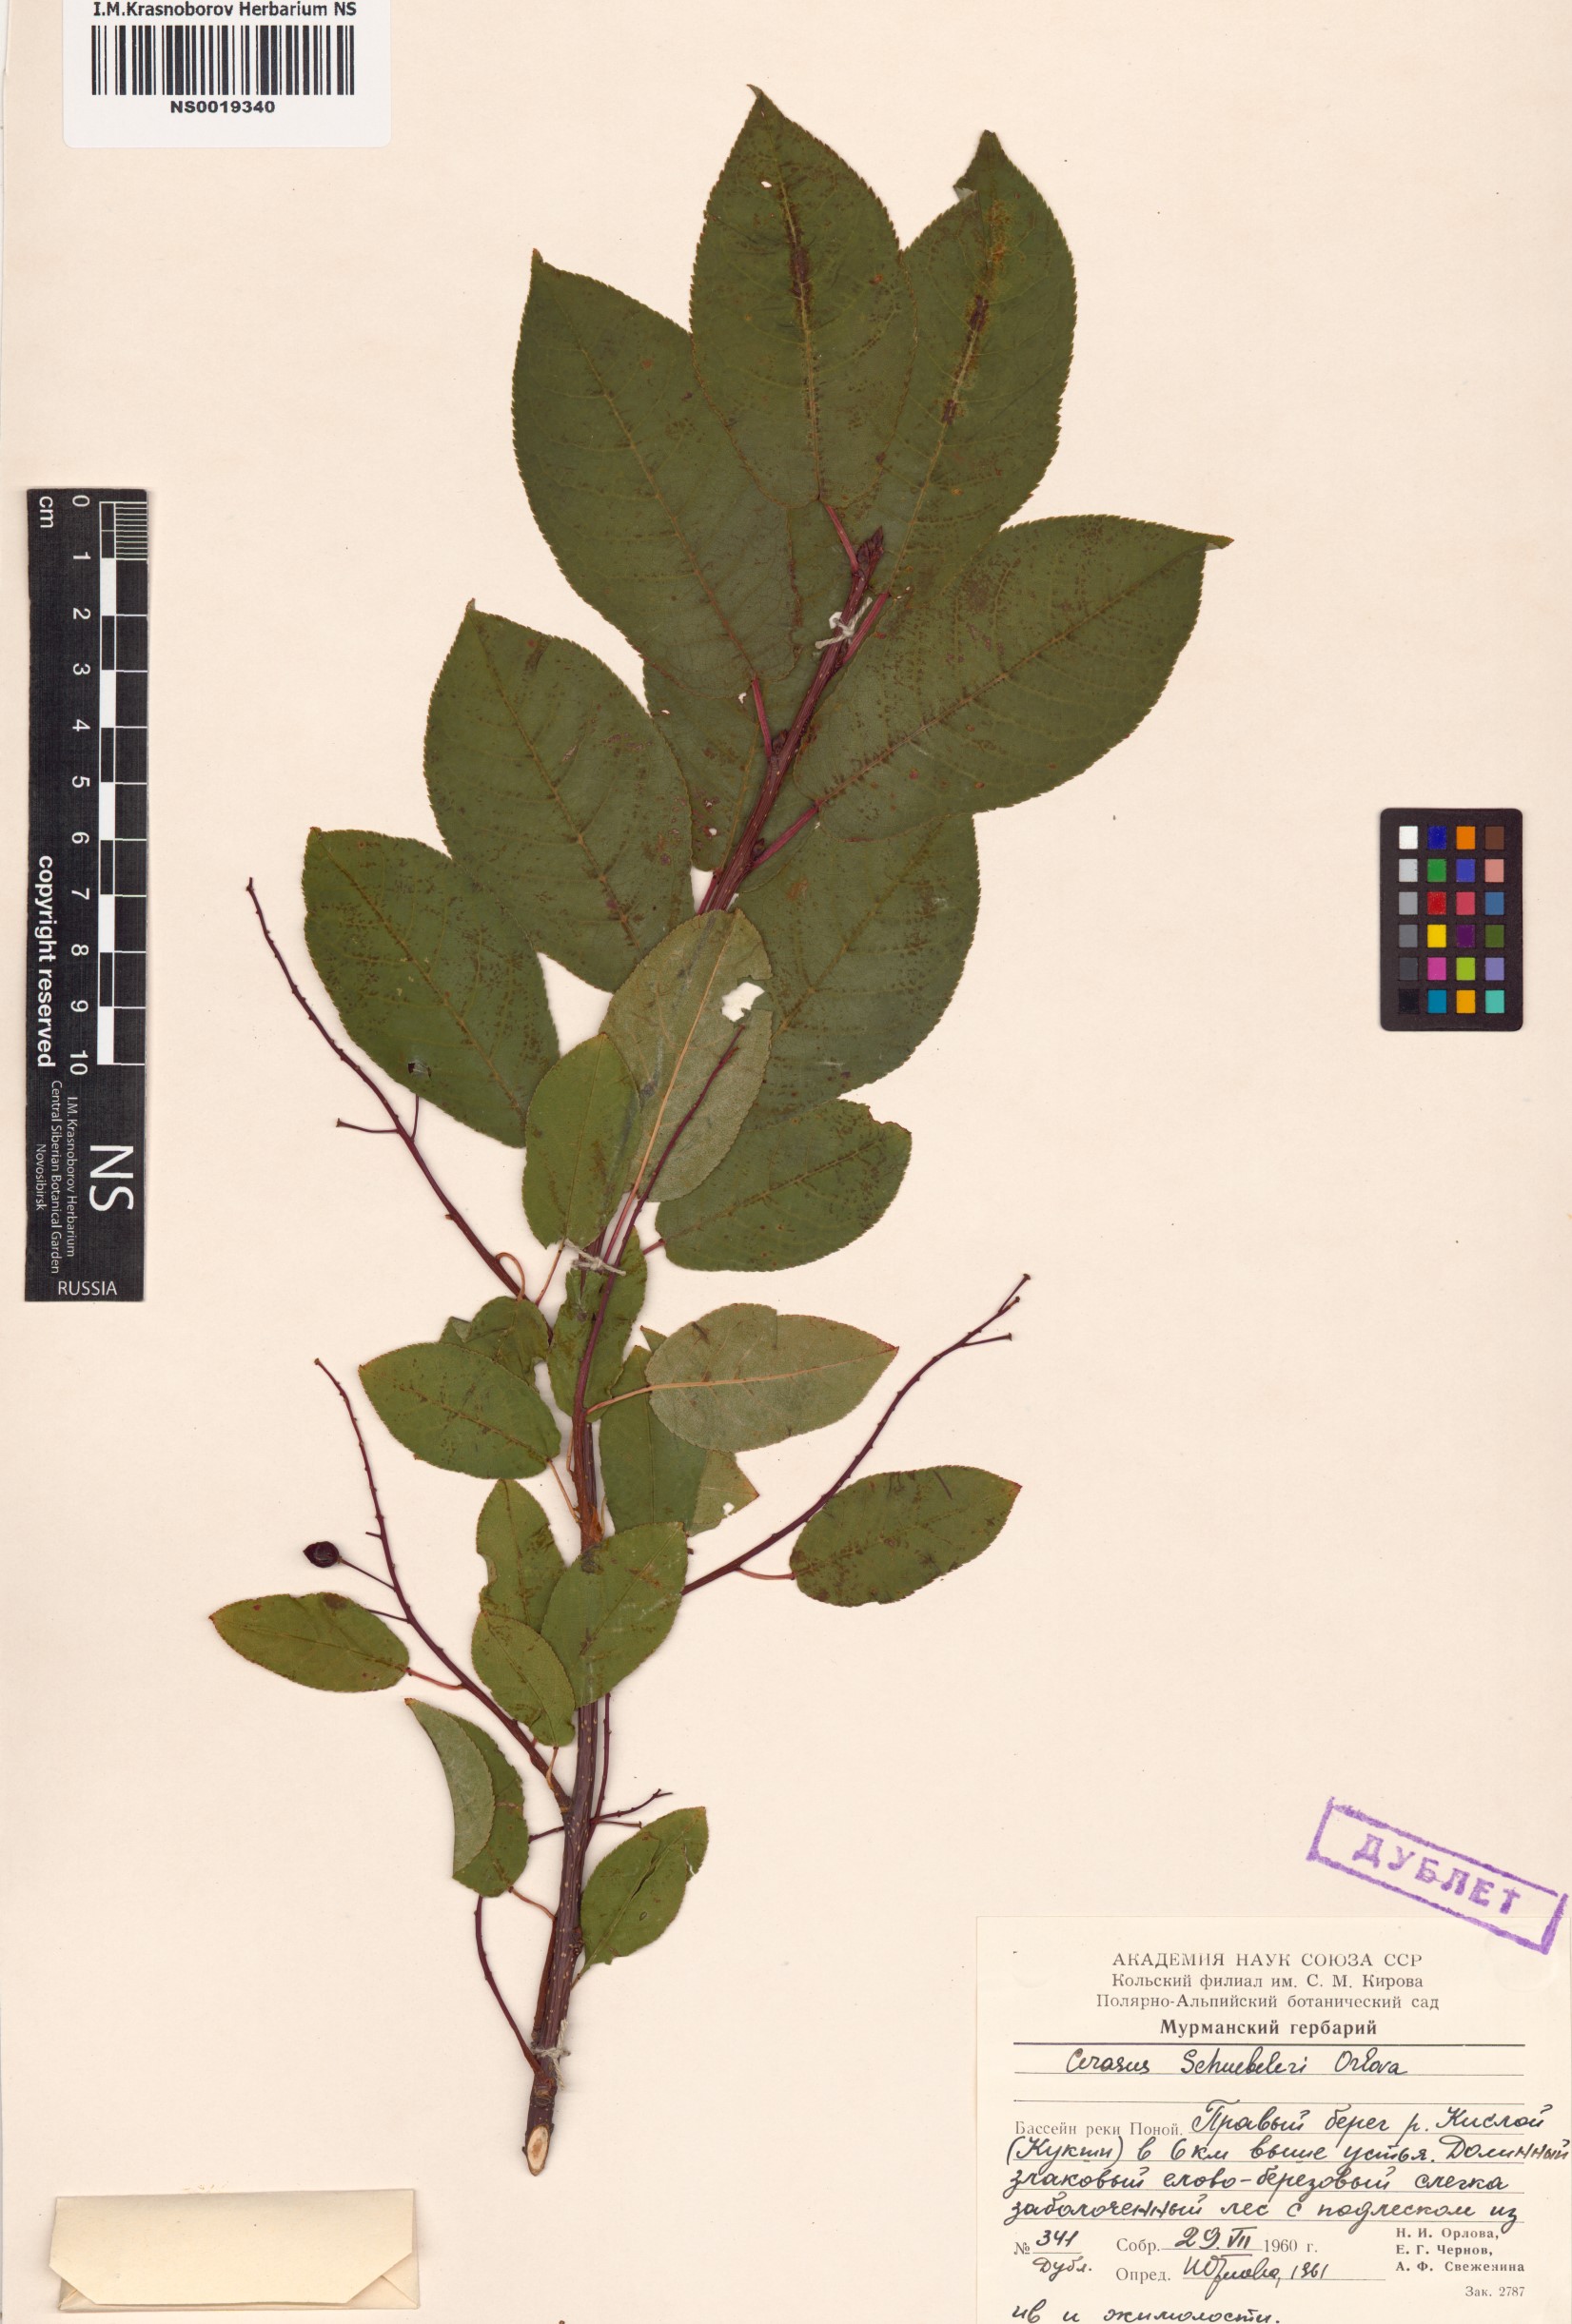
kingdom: Plantae
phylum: Tracheophyta
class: Magnoliopsida
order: Rosales
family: Rosaceae
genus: Prunus
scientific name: Prunus padus
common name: Bird cherry
